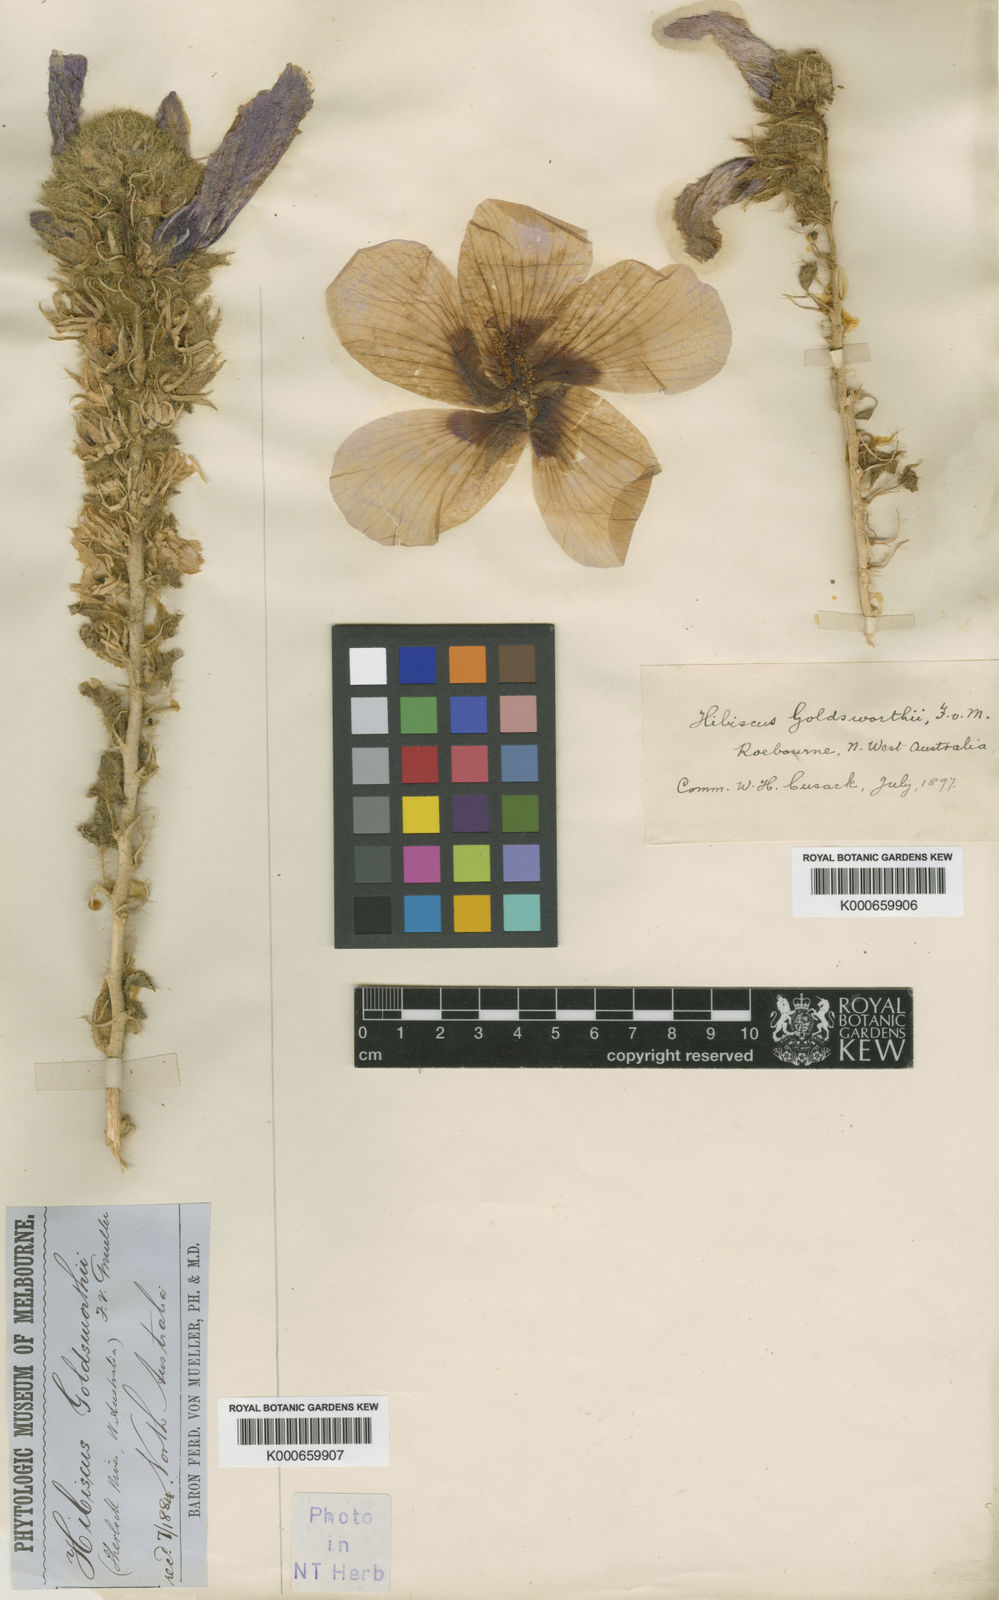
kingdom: Plantae
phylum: Tracheophyta
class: Magnoliopsida
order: Malvales
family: Malvaceae
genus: Hibiscus
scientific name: Hibiscus goldsworthii
